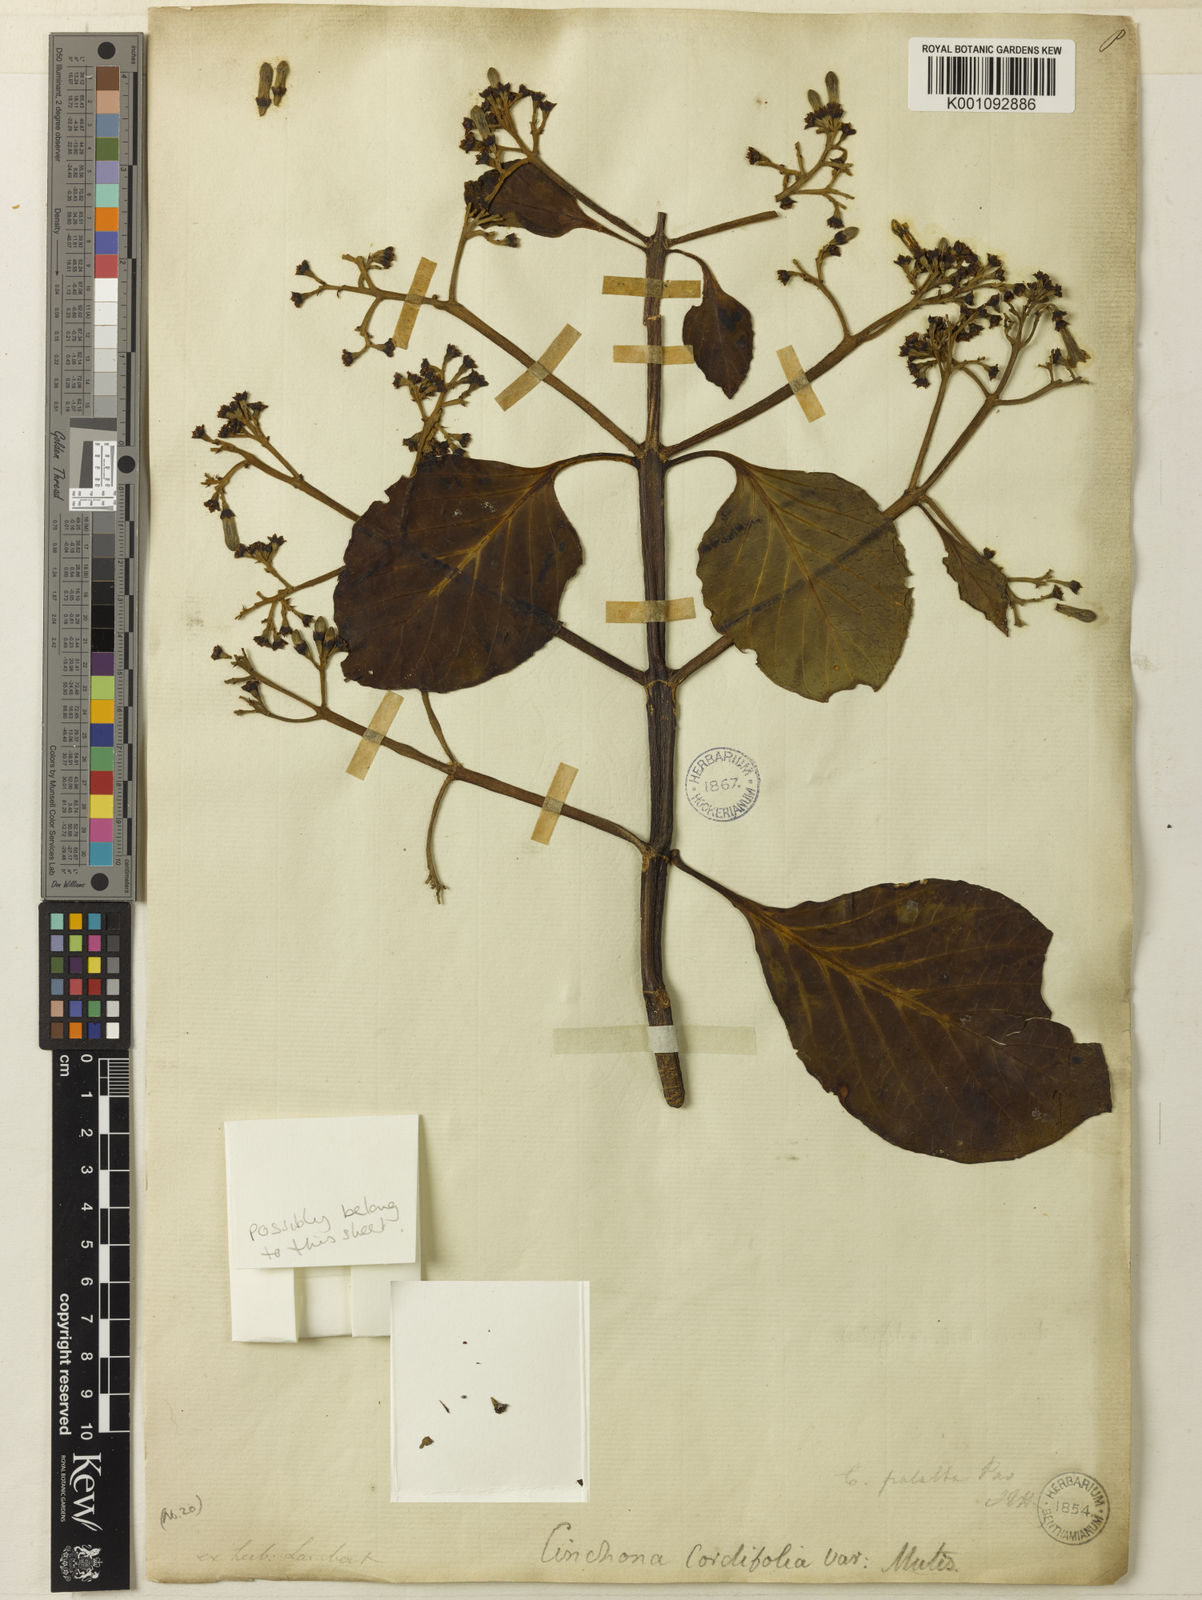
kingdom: Plantae
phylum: Tracheophyta
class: Magnoliopsida
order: Gentianales
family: Rubiaceae
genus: Cinchona
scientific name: Cinchona
